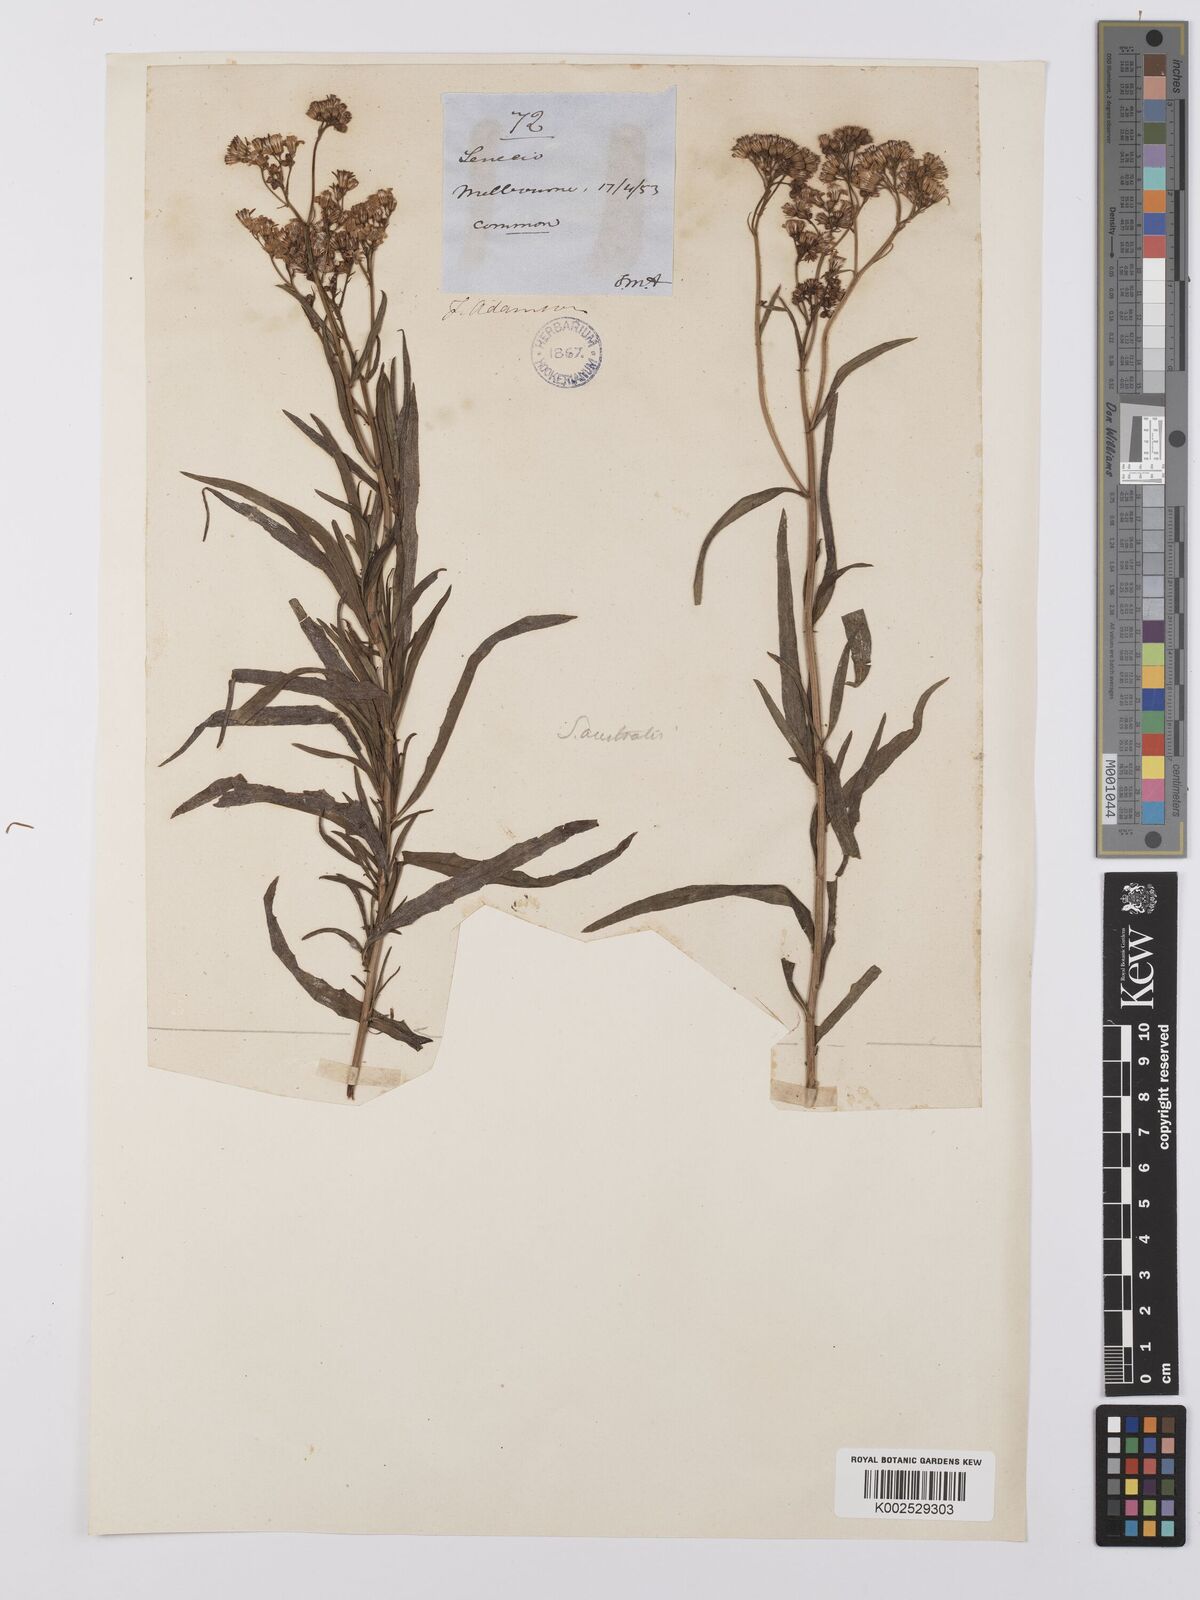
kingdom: Plantae
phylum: Tracheophyta
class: Magnoliopsida
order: Asterales
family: Asteraceae
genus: Senecio
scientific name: Senecio linearifolius
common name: Fireweed groundsel
